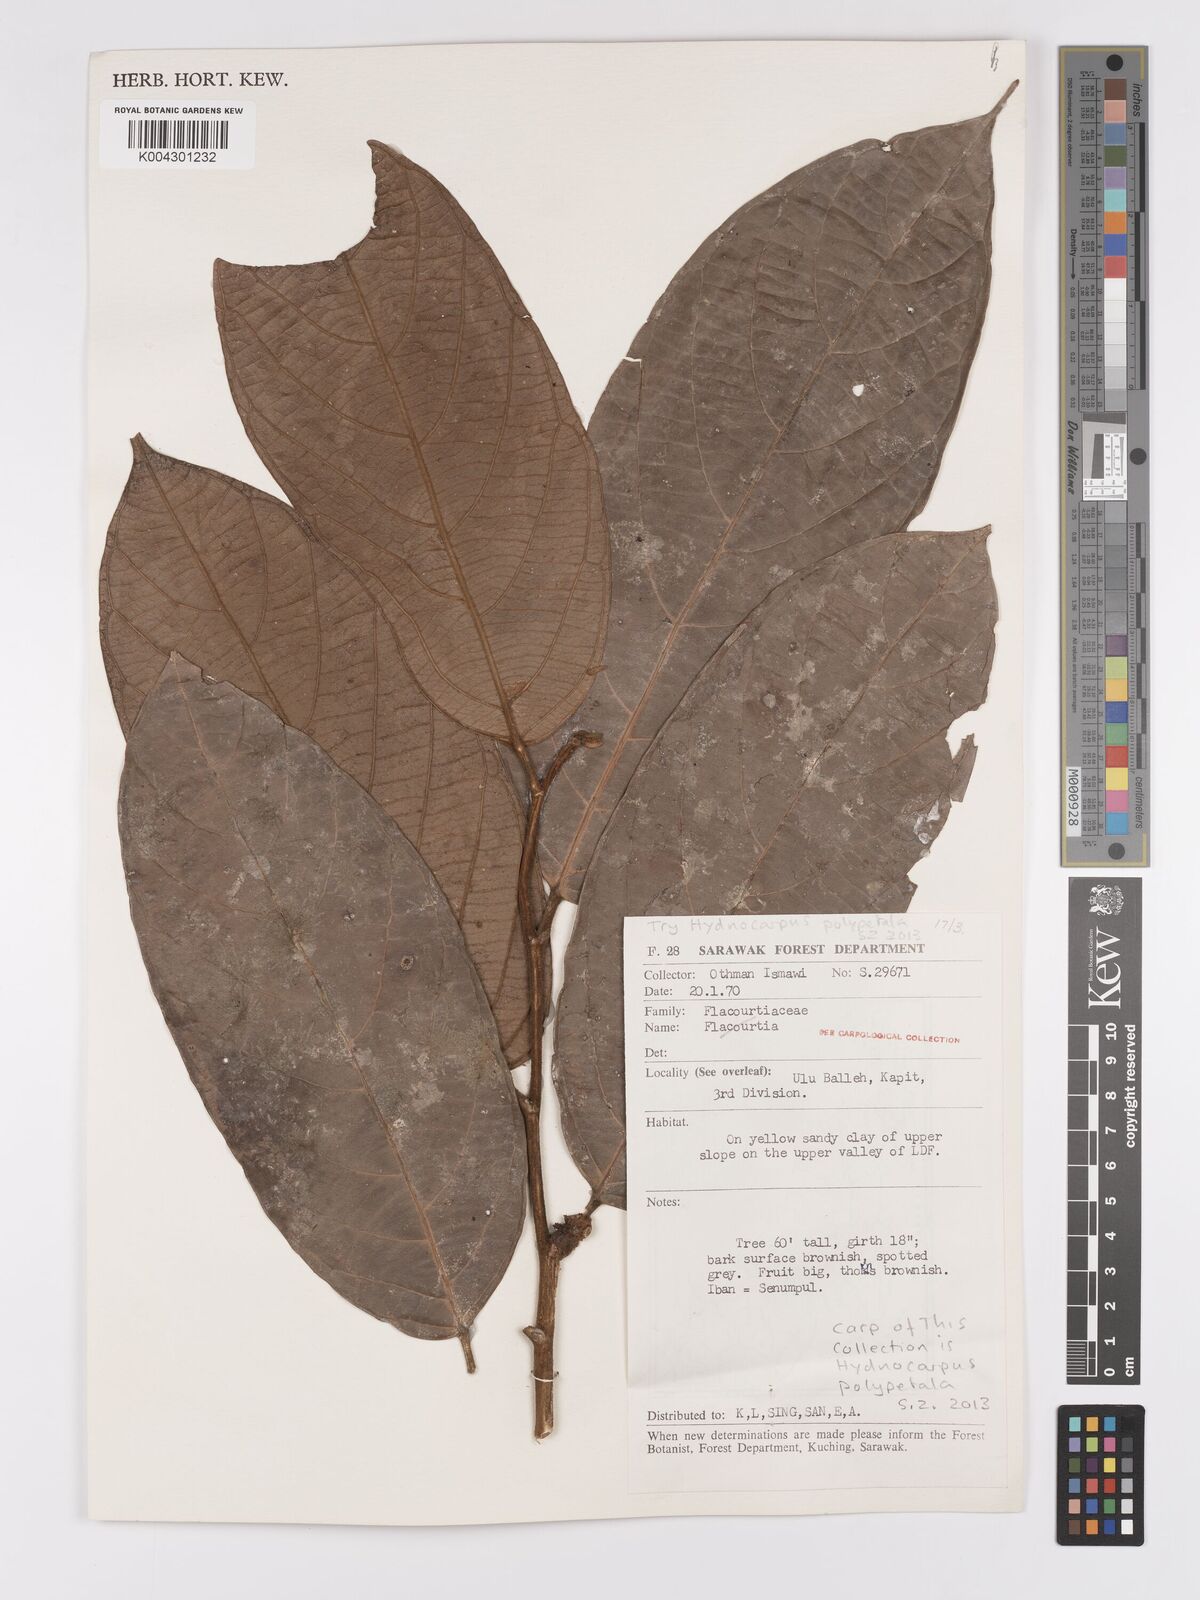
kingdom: Plantae
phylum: Tracheophyta
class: Magnoliopsida
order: Malpighiales
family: Achariaceae
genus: Hydnocarpus
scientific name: Hydnocarpus polypetalus
